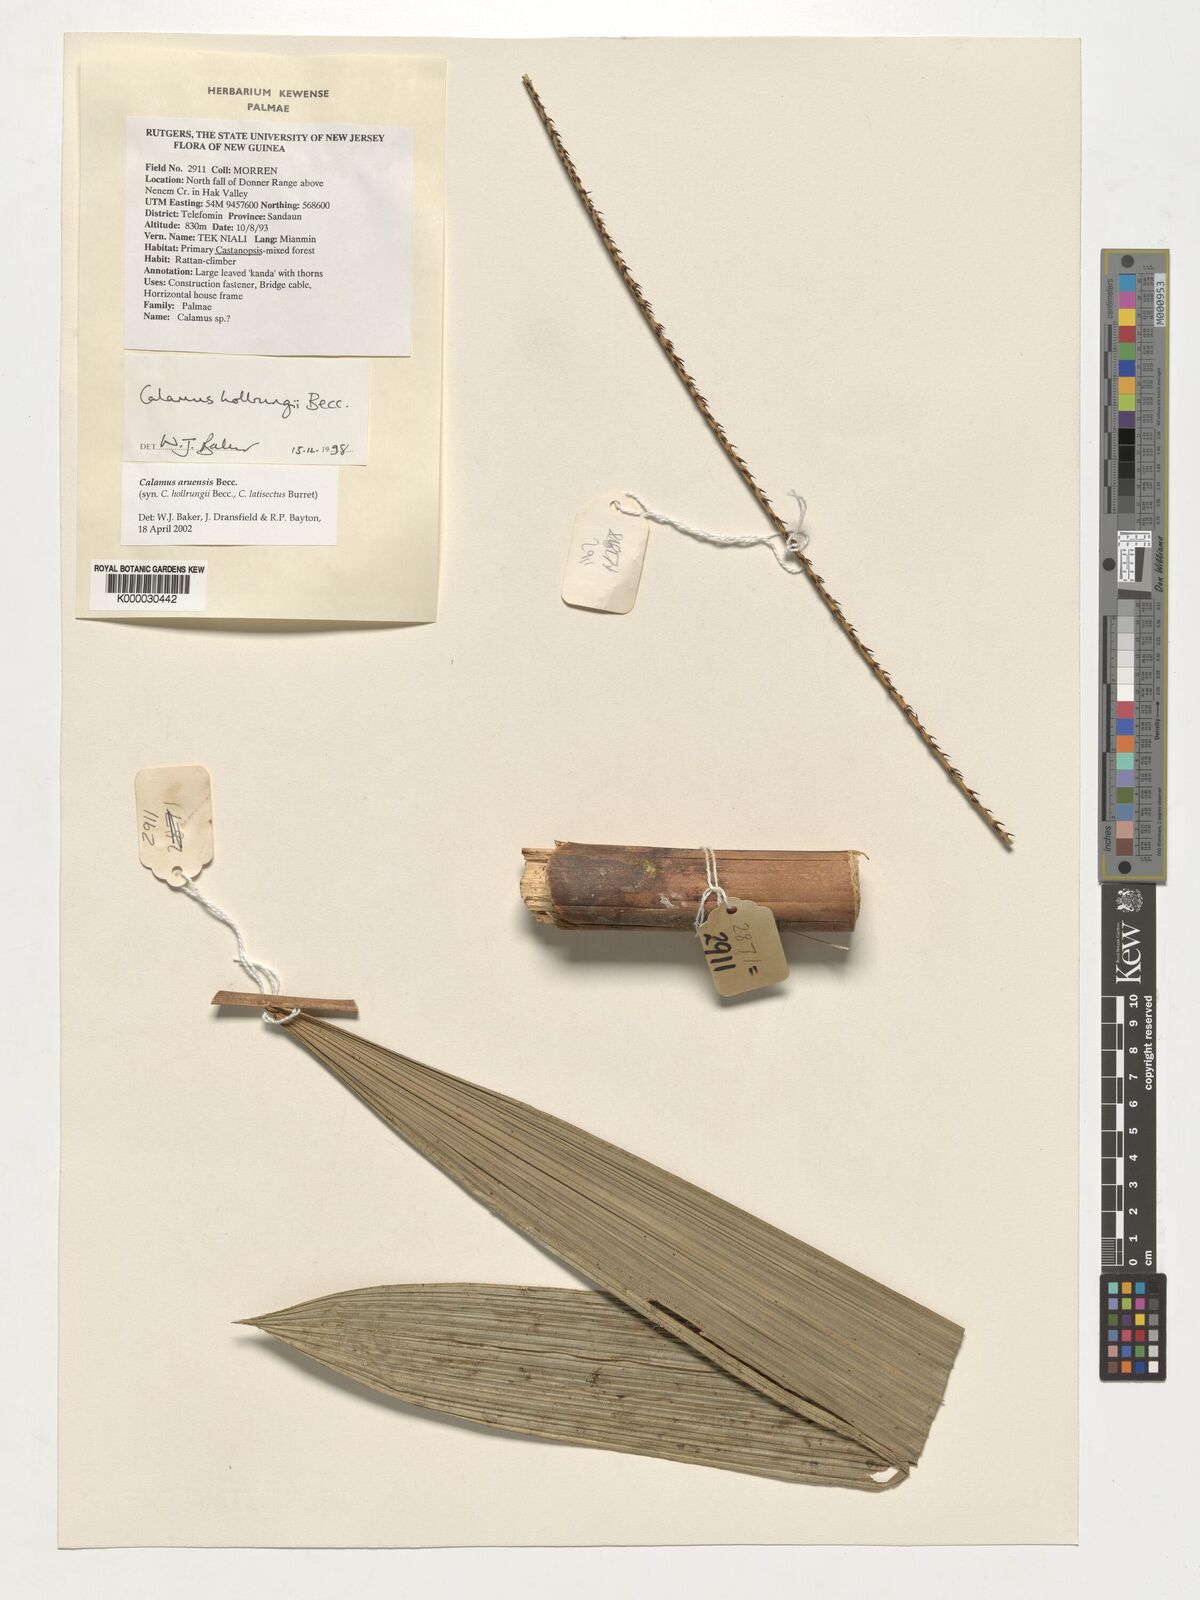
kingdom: Plantae
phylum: Tracheophyta
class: Liliopsida
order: Arecales
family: Arecaceae
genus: Calamus
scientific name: Calamus aruensis
